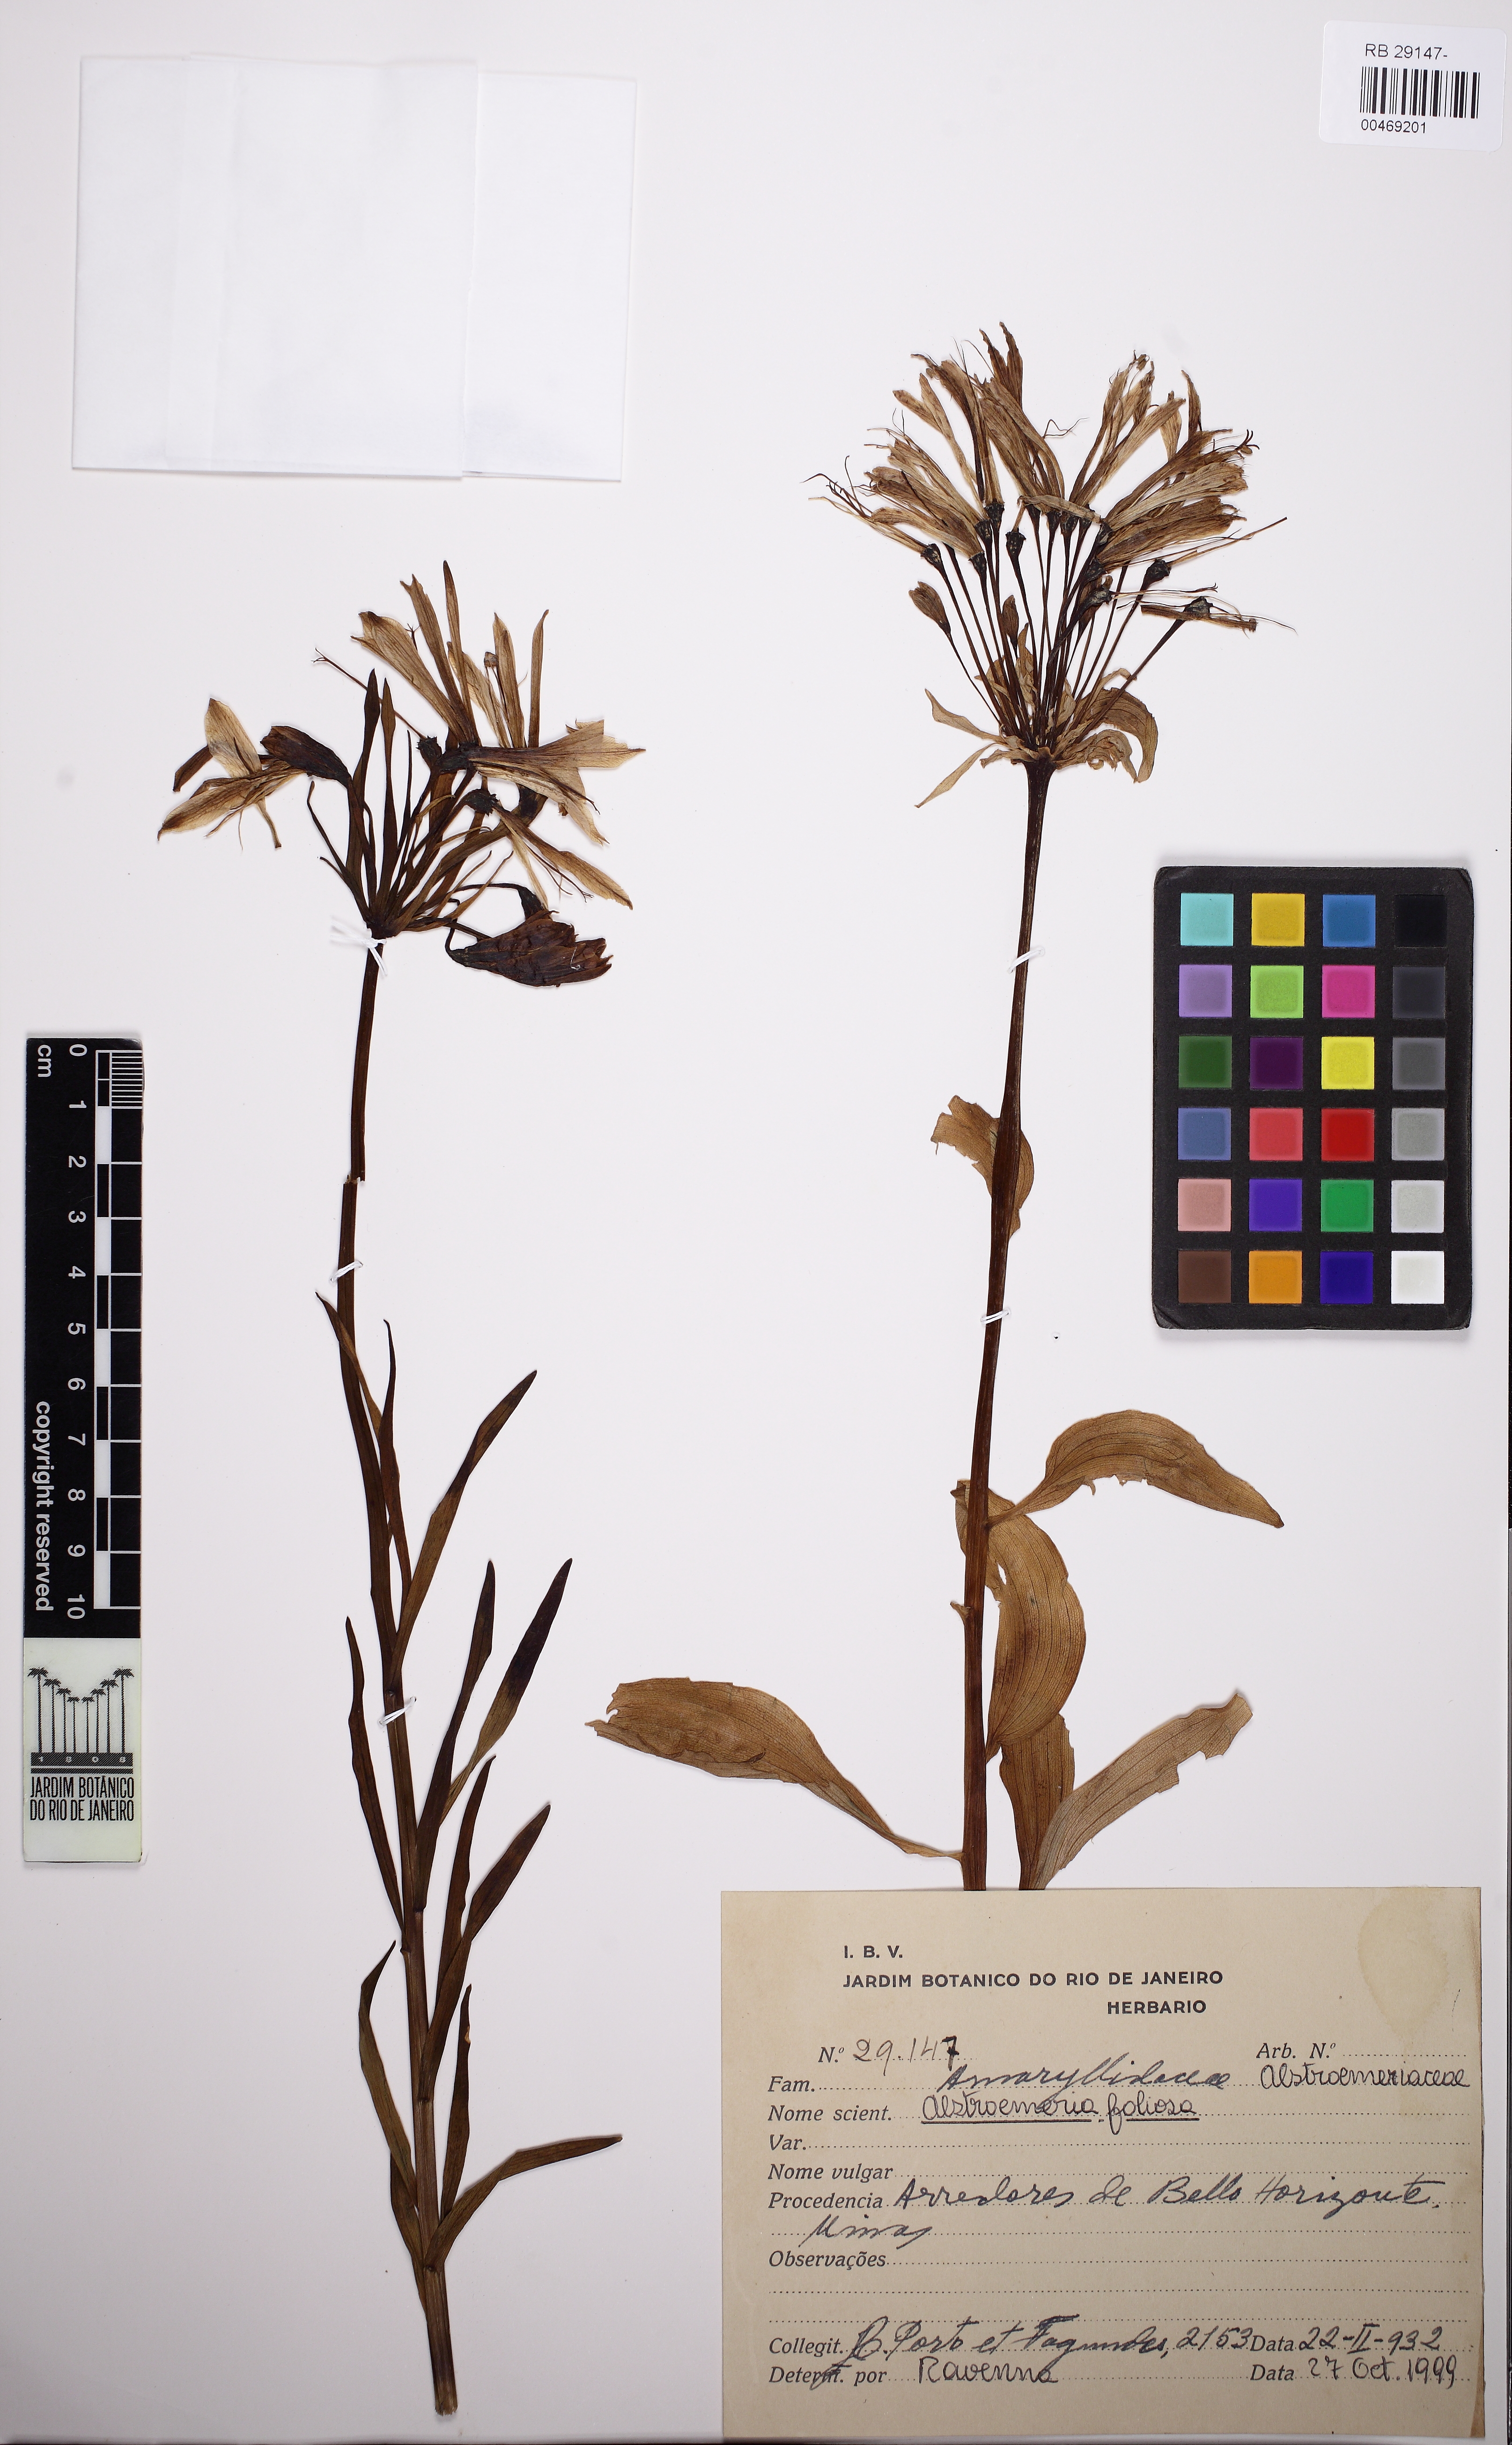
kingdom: Plantae
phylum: Tracheophyta
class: Liliopsida
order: Liliales
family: Alstroemeriaceae
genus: Alstroemeria
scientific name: Alstroemeria foliosa
